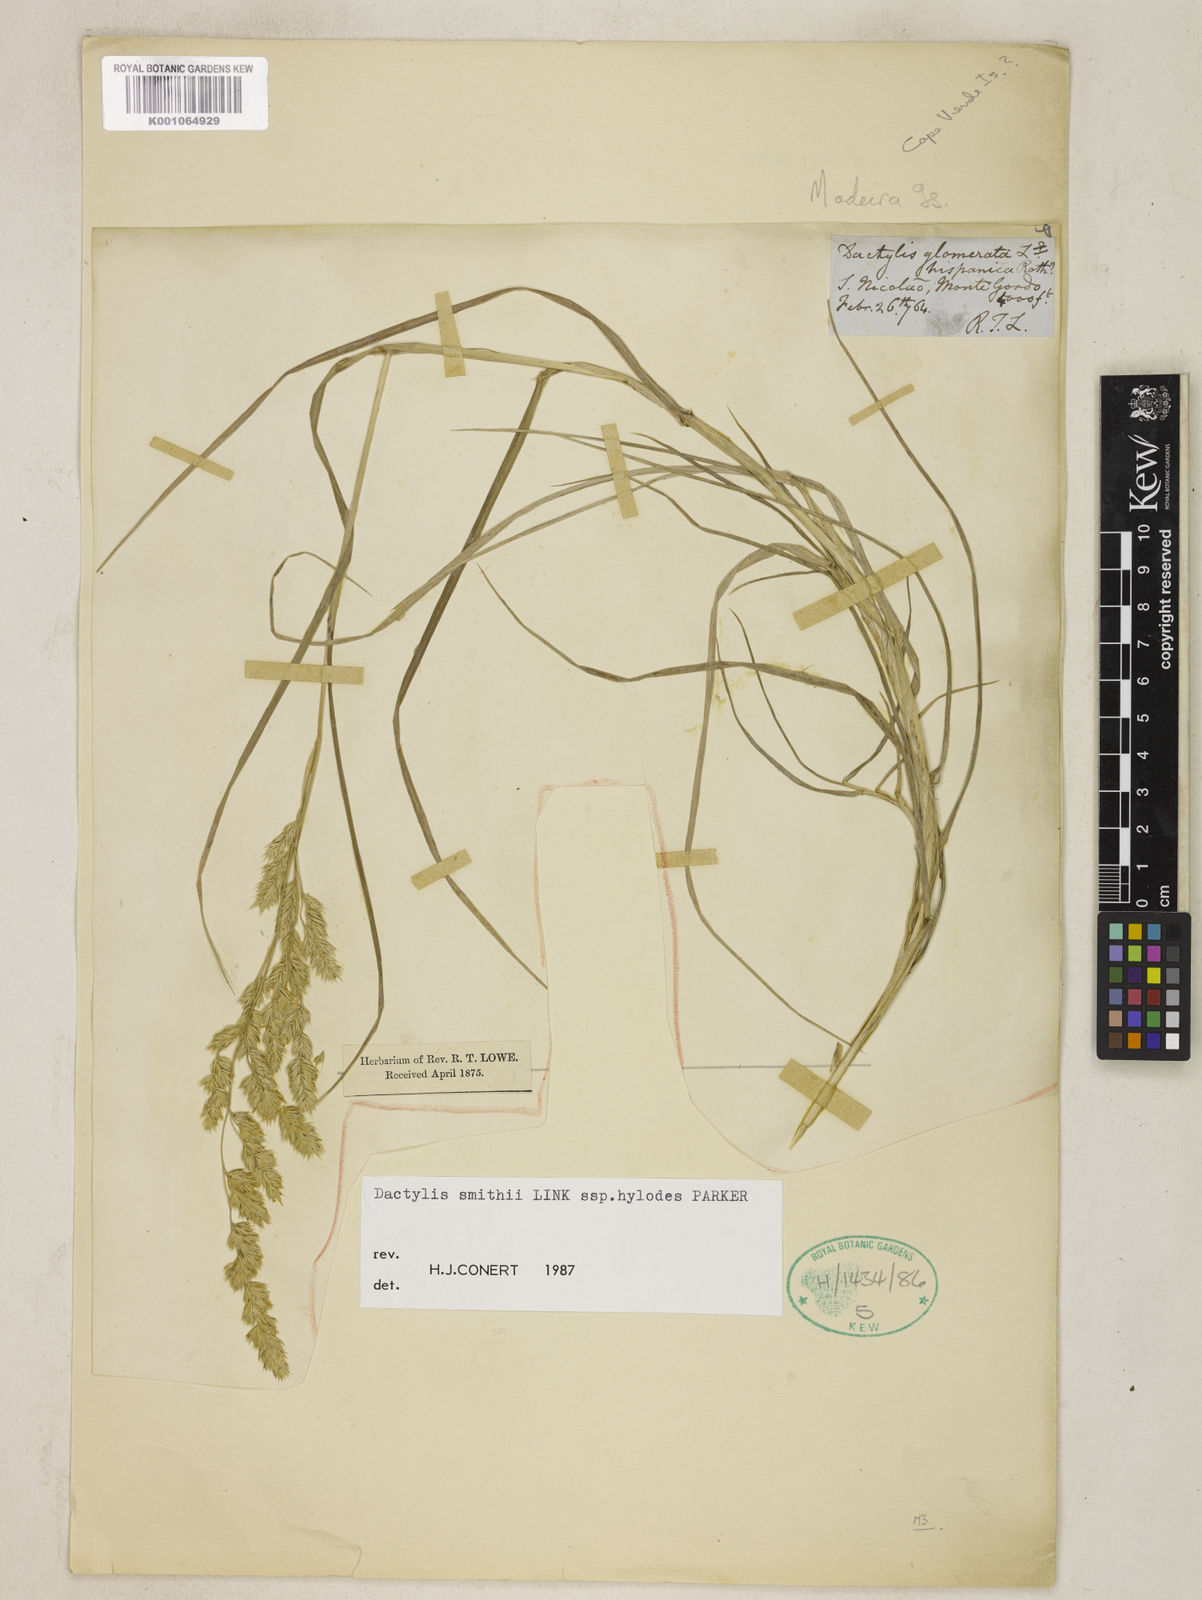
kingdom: Plantae
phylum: Tracheophyta
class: Liliopsida
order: Poales
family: Poaceae
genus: Dactylis
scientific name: Dactylis glomerata
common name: Orchardgrass
